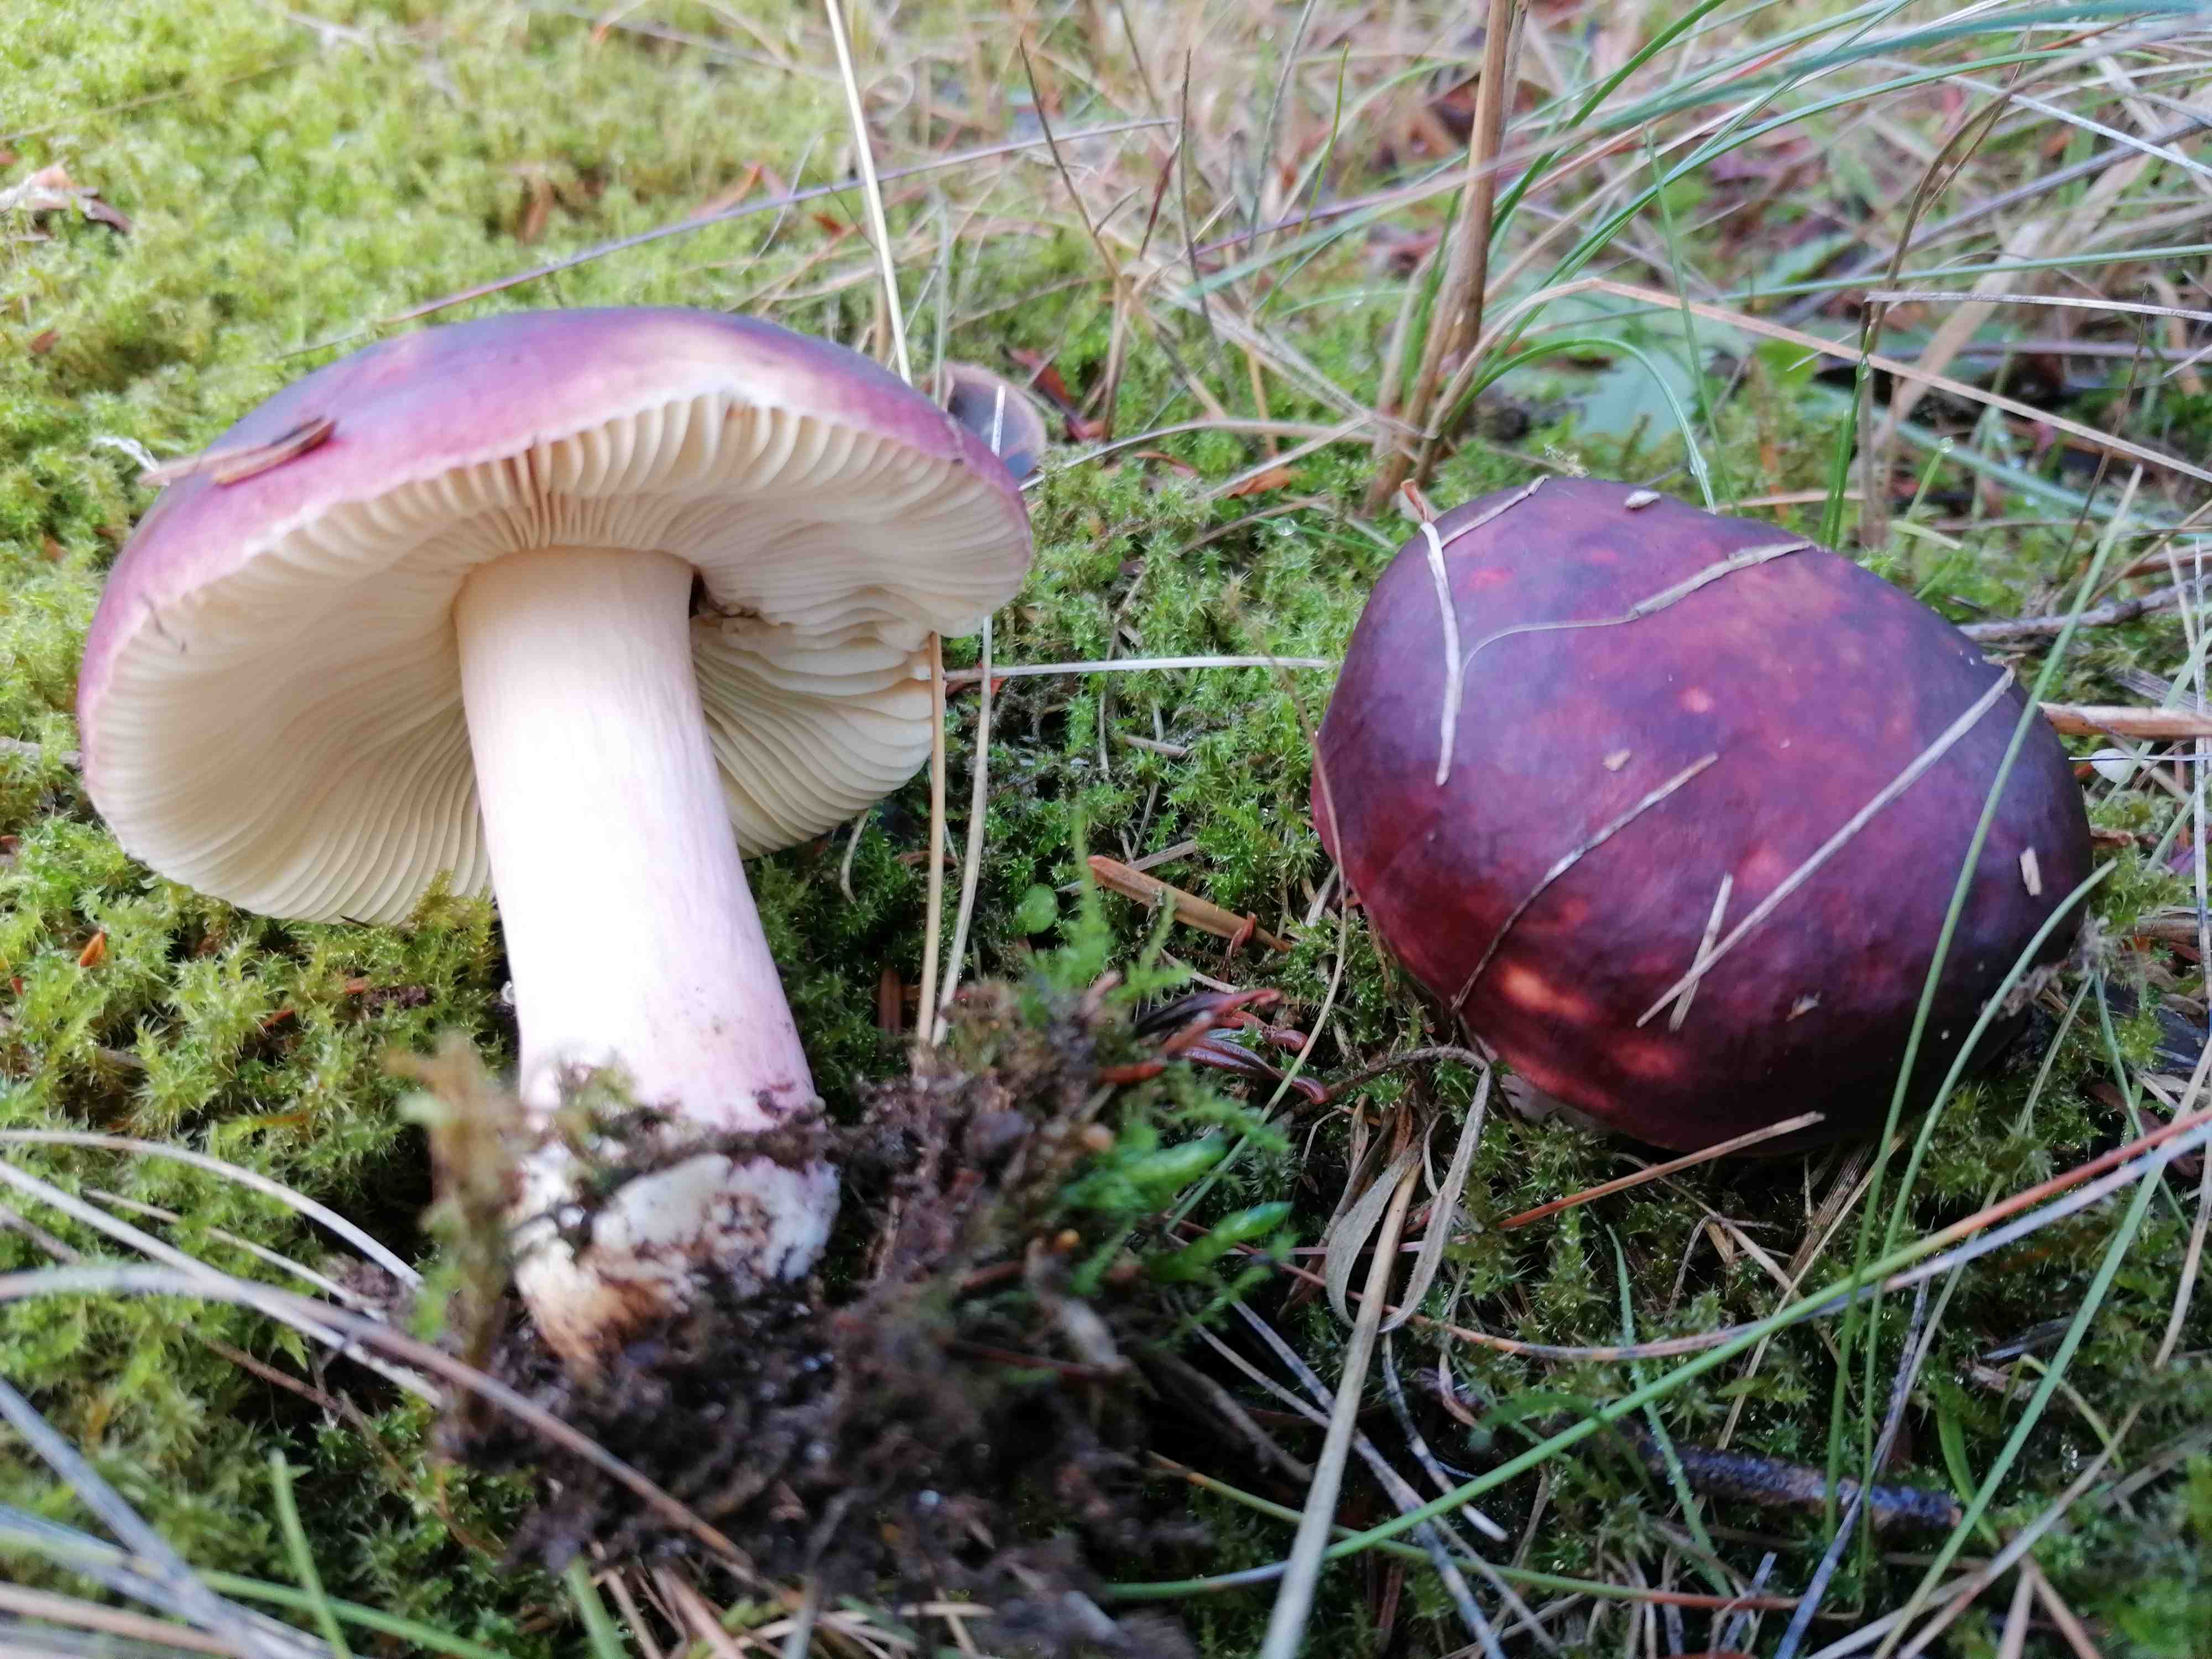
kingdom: Fungi
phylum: Basidiomycota
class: Agaricomycetes
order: Russulales
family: Russulaceae
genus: Russula
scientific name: Russula xerampelina
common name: hummer-skørhat
